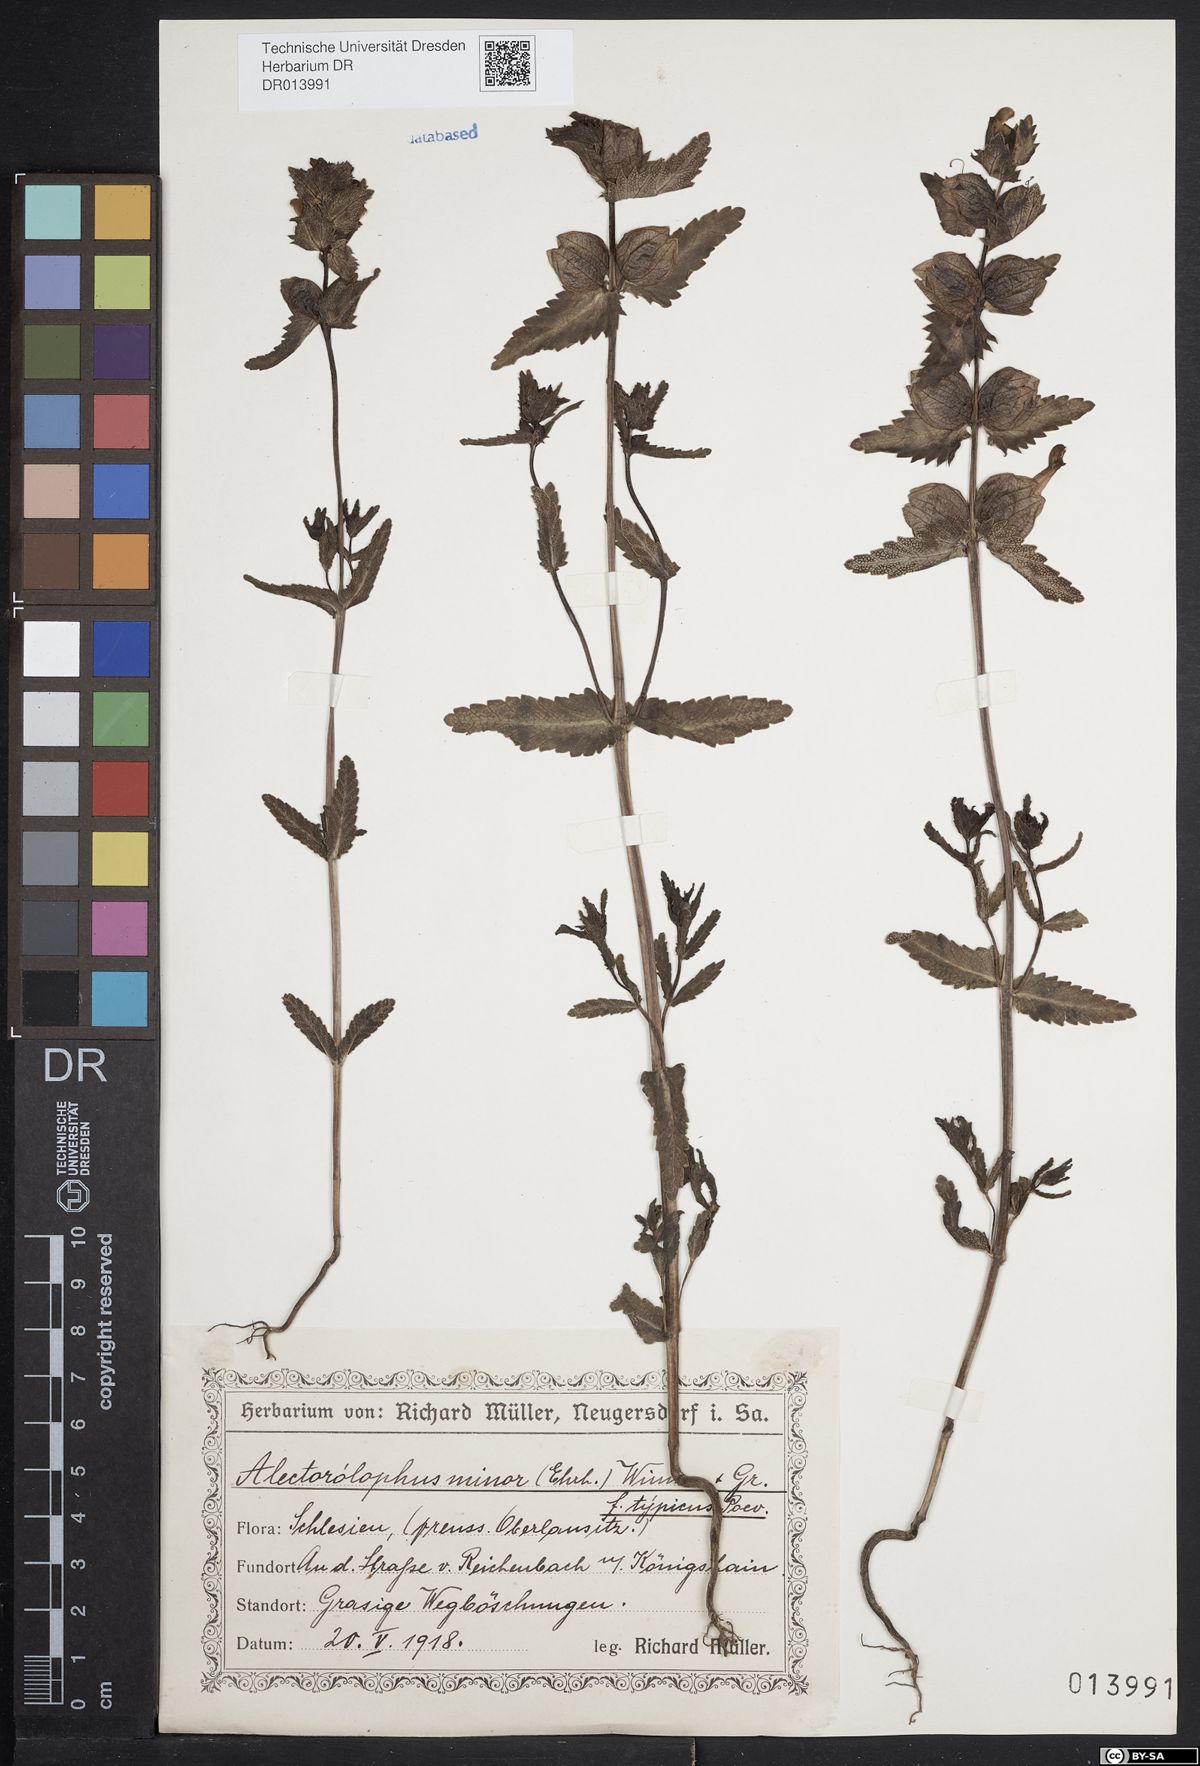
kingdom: Plantae
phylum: Tracheophyta
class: Magnoliopsida
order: Lamiales
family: Orobanchaceae
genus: Rhinanthus
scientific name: Rhinanthus minor
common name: Yellow-rattle
